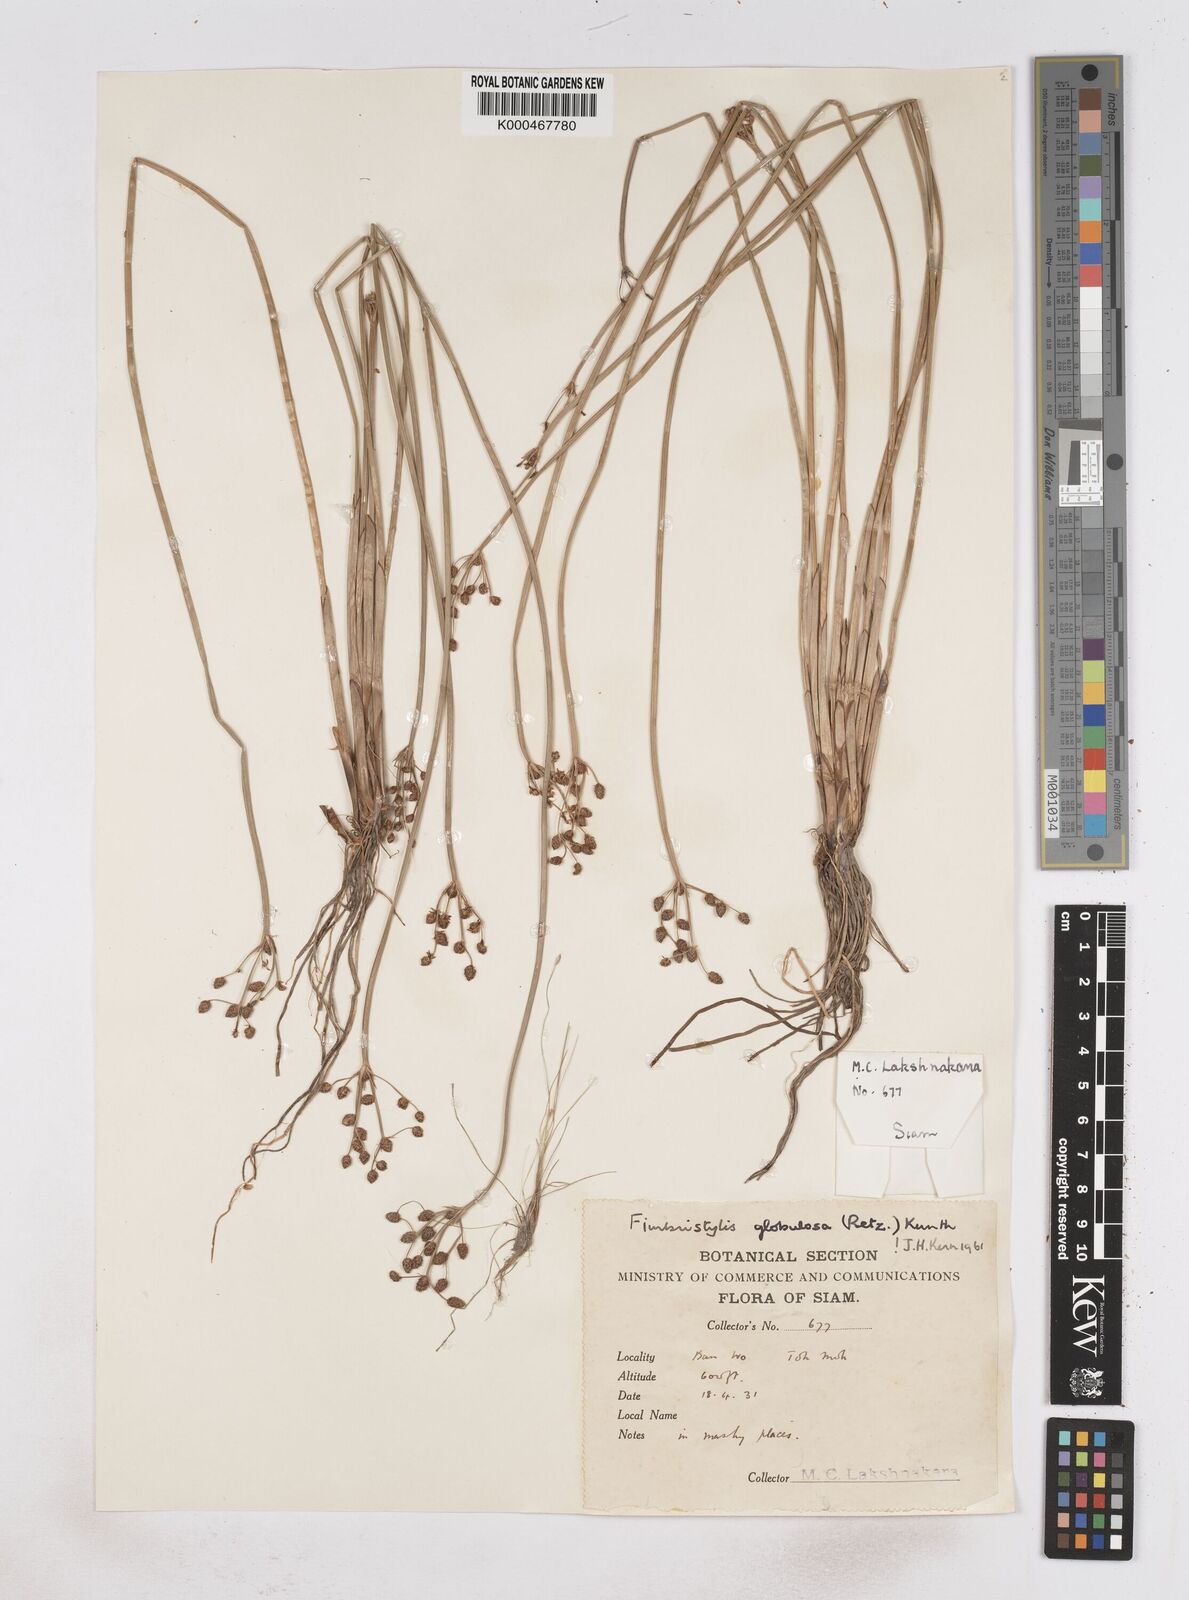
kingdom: Plantae
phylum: Tracheophyta
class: Liliopsida
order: Poales
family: Cyperaceae
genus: Fimbristylis
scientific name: Fimbristylis umbellaris
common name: Globular fimbristylis
